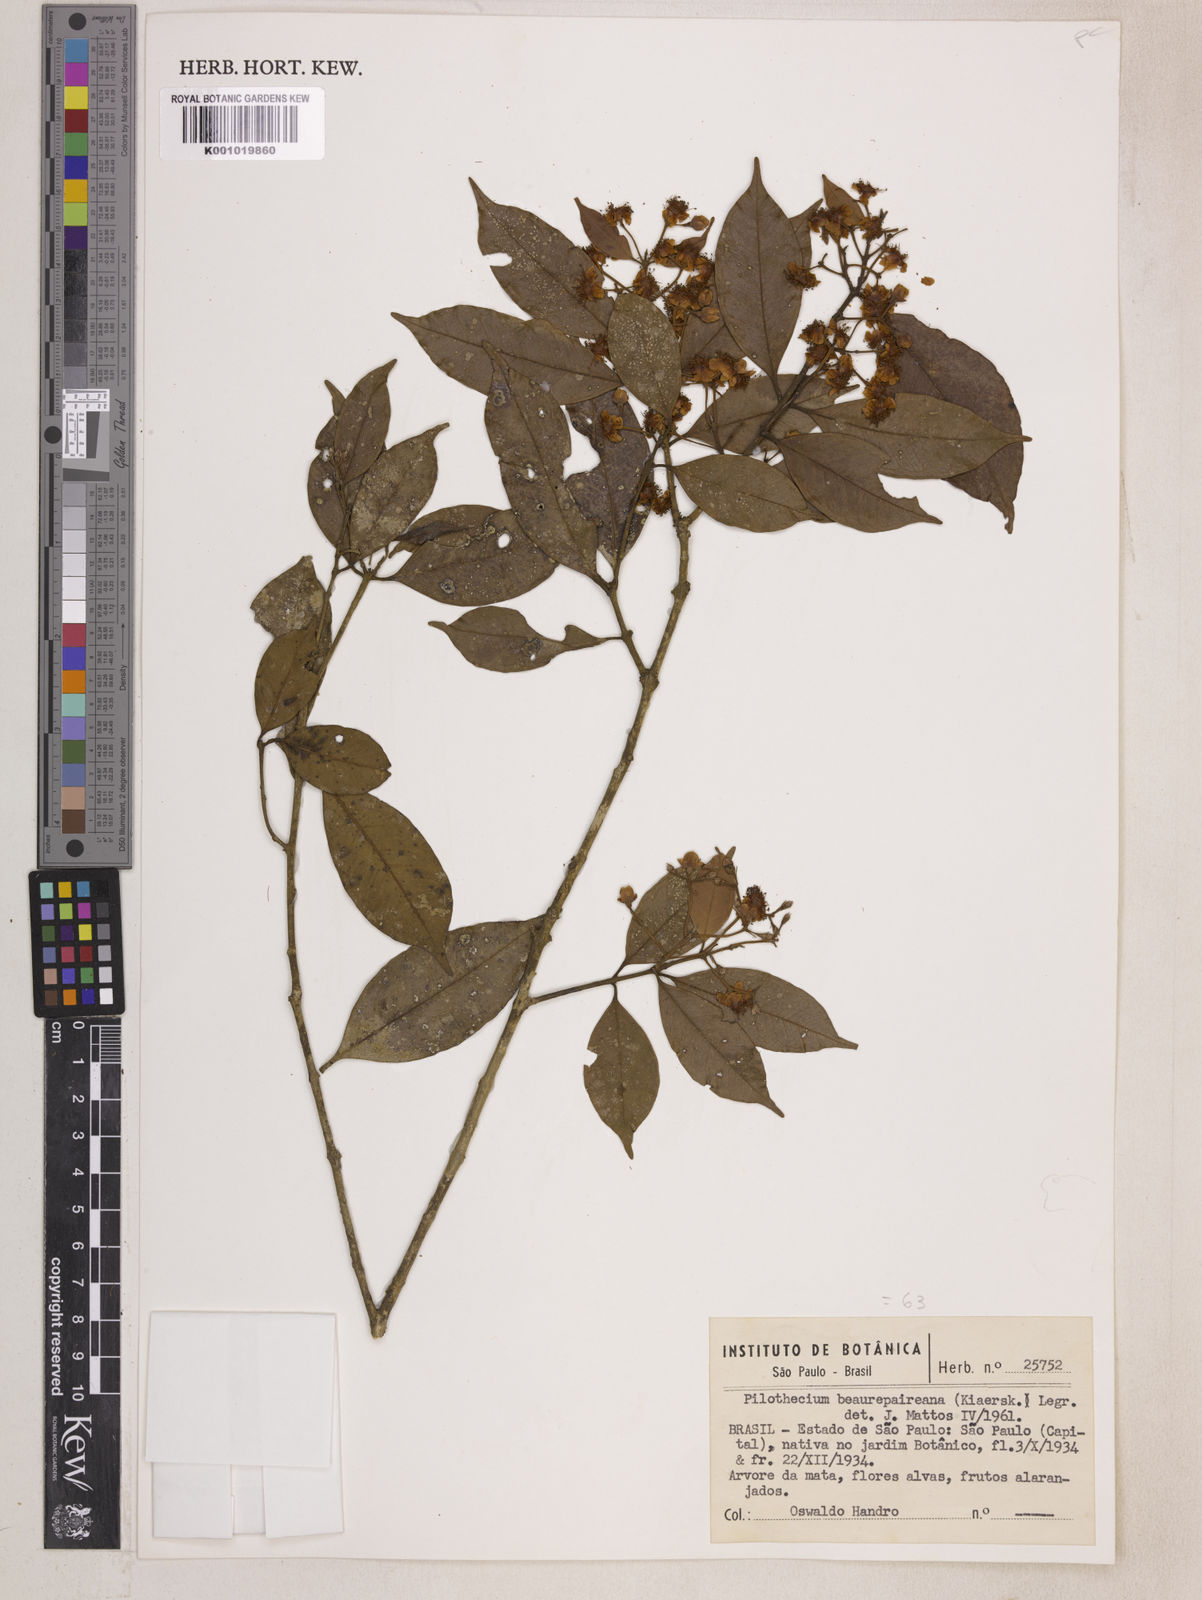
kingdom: Plantae
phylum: Tracheophyta
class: Magnoliopsida
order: Myrtales
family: Myrtaceae
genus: Eugenia
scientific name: Eugenia ternatifolia
